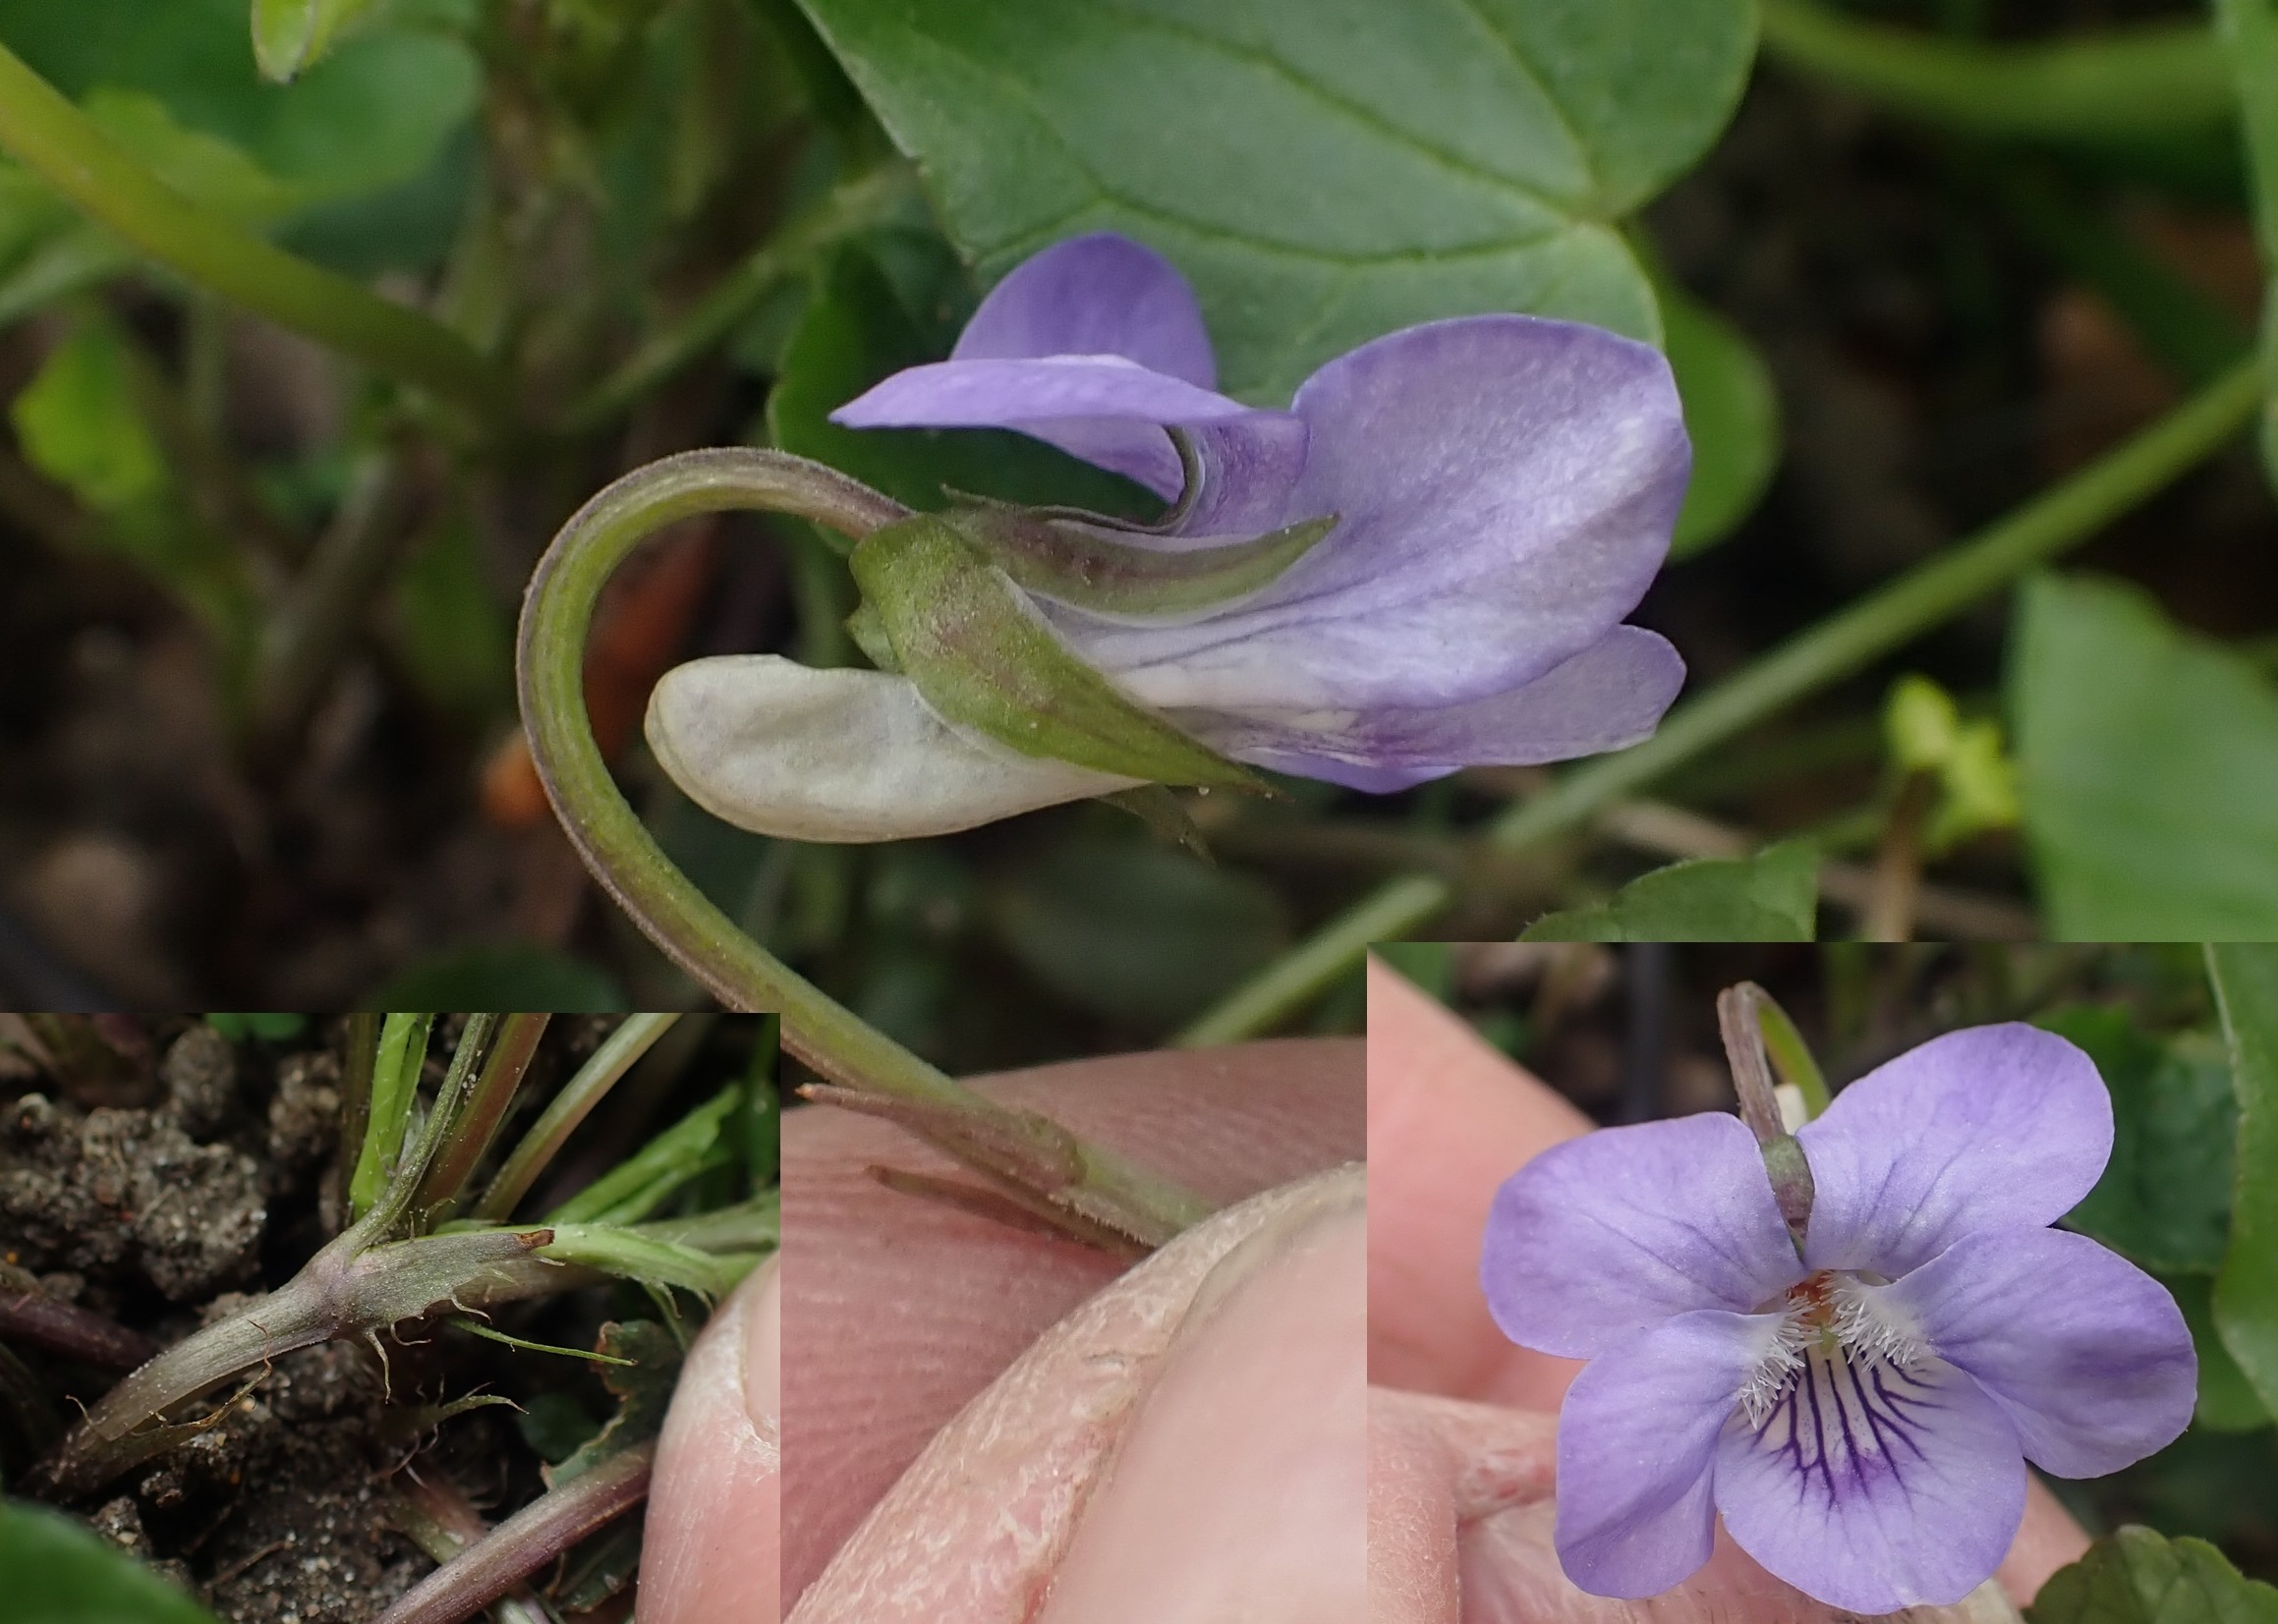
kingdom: Plantae
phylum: Tracheophyta
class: Magnoliopsida
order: Malpighiales
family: Violaceae
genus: Viola
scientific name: Viola riviniana
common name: Krat-viol
